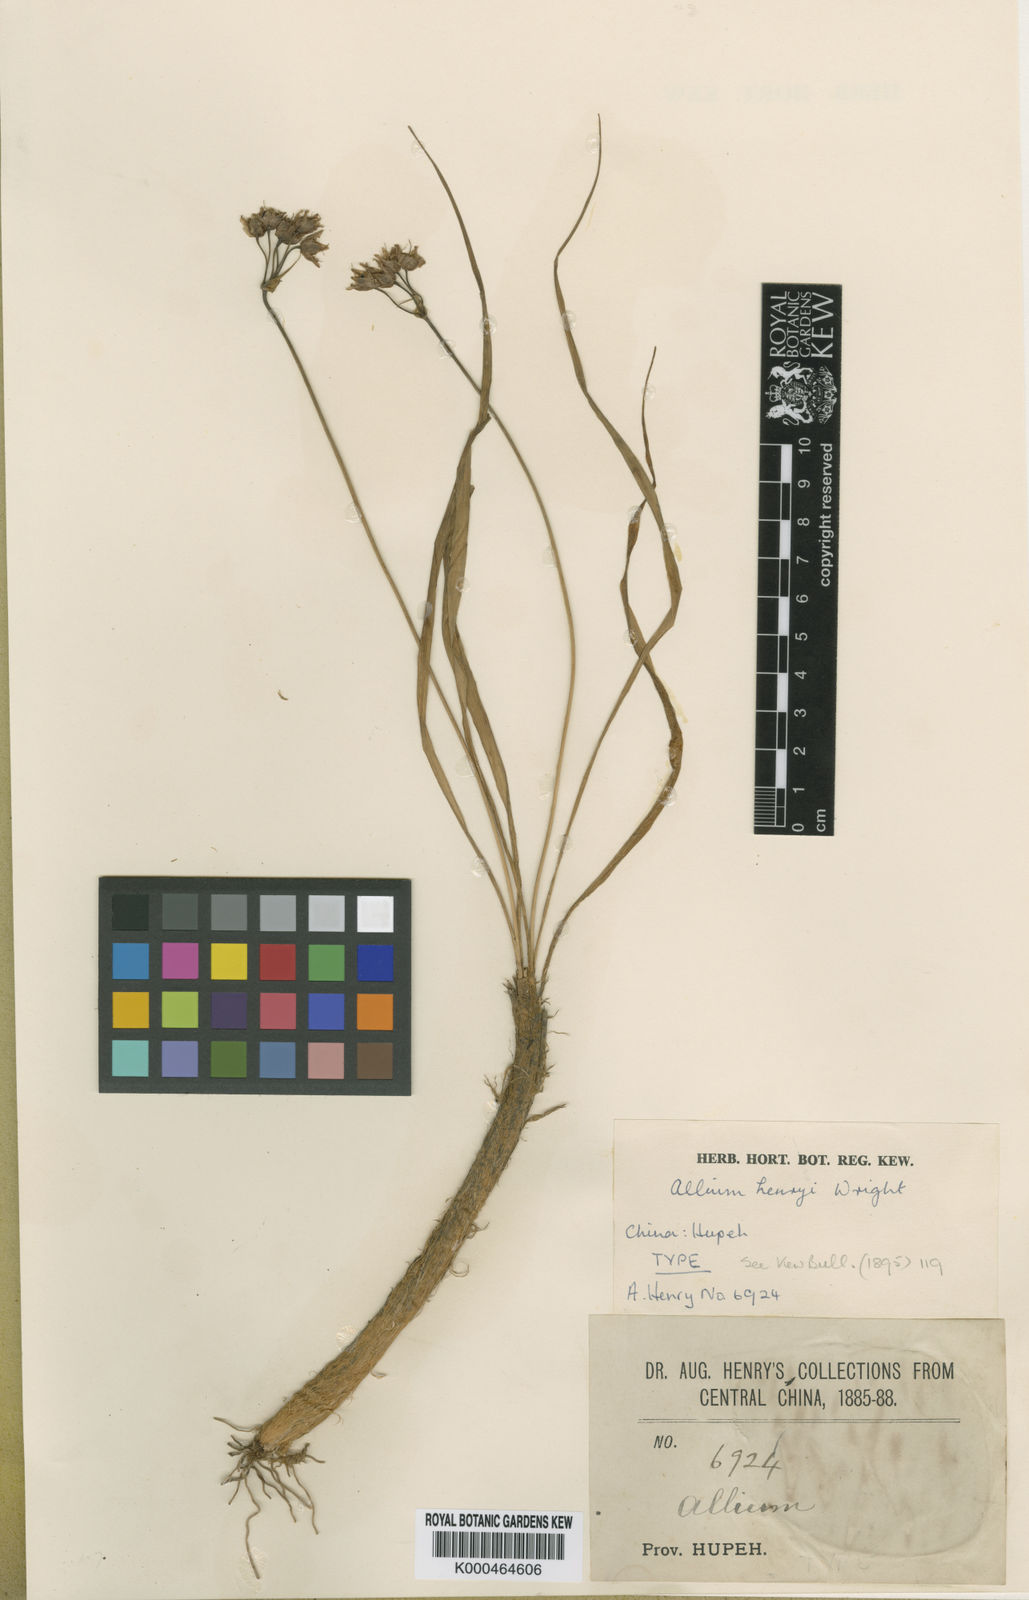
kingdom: Plantae
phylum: Tracheophyta
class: Liliopsida
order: Asparagales
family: Amaryllidaceae
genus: Allium
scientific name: Allium henryi
